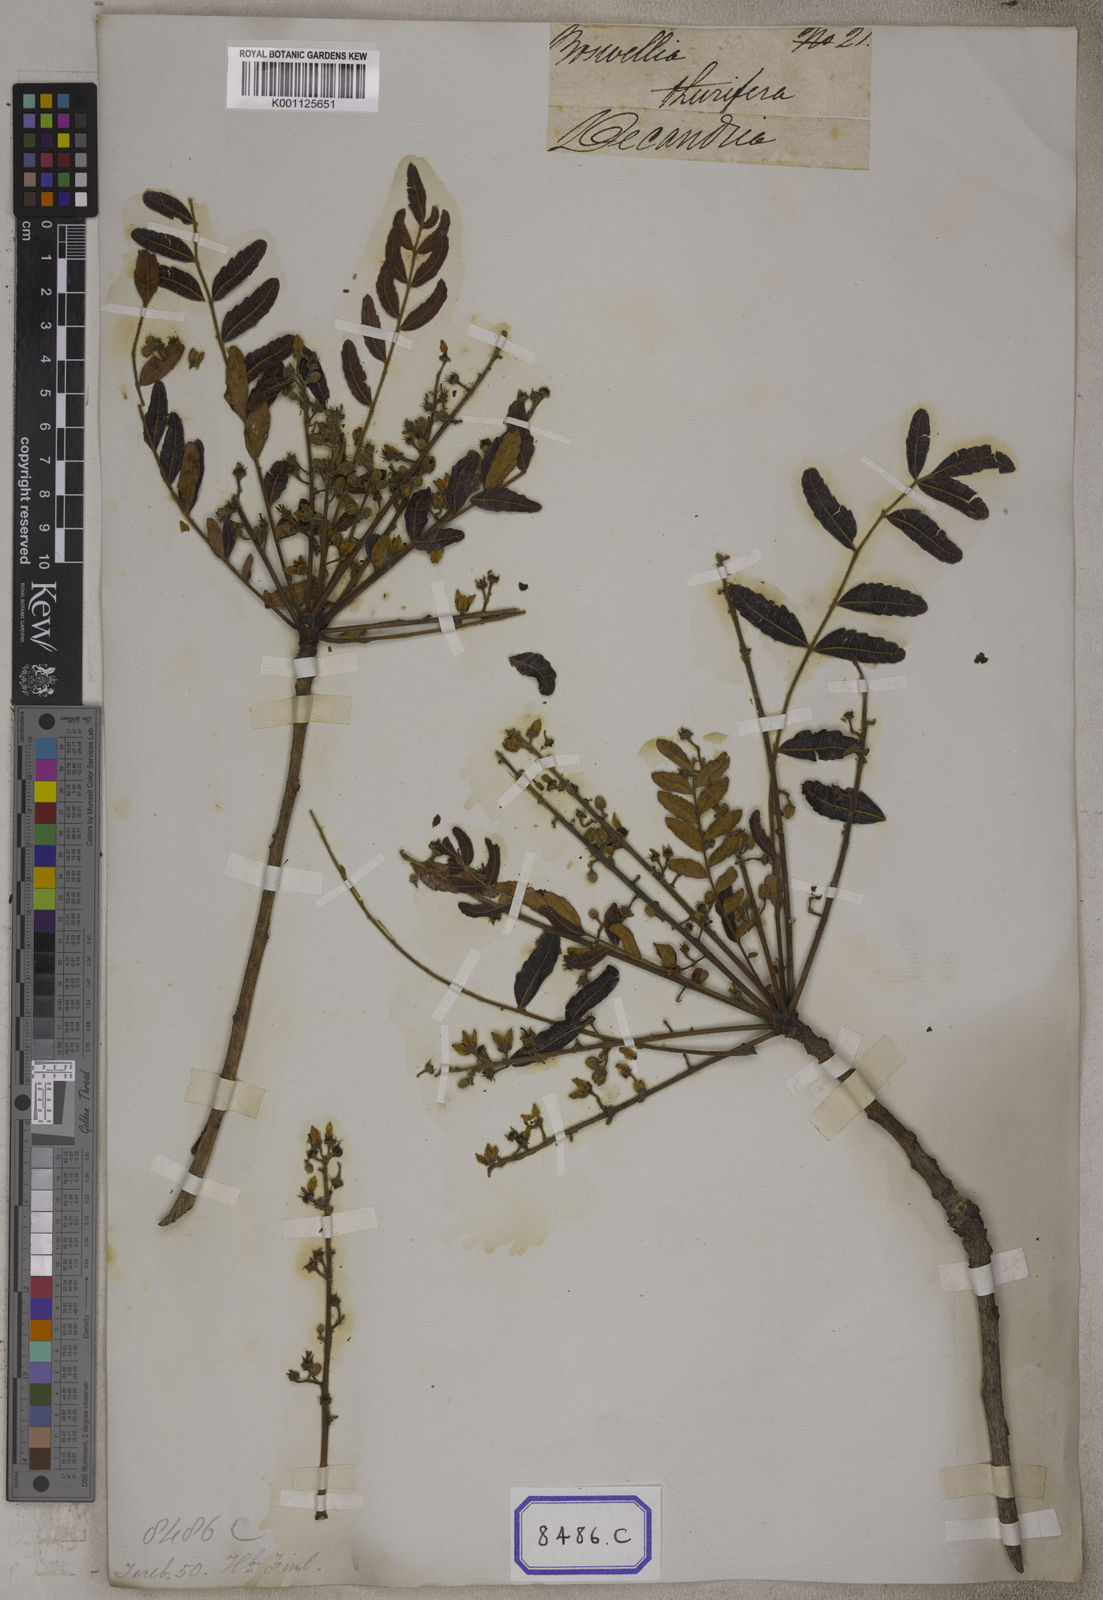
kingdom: Plantae
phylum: Tracheophyta
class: Magnoliopsida
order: Sapindales
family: Burseraceae
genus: Boswellia
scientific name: Boswellia serrata
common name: Boswellia
